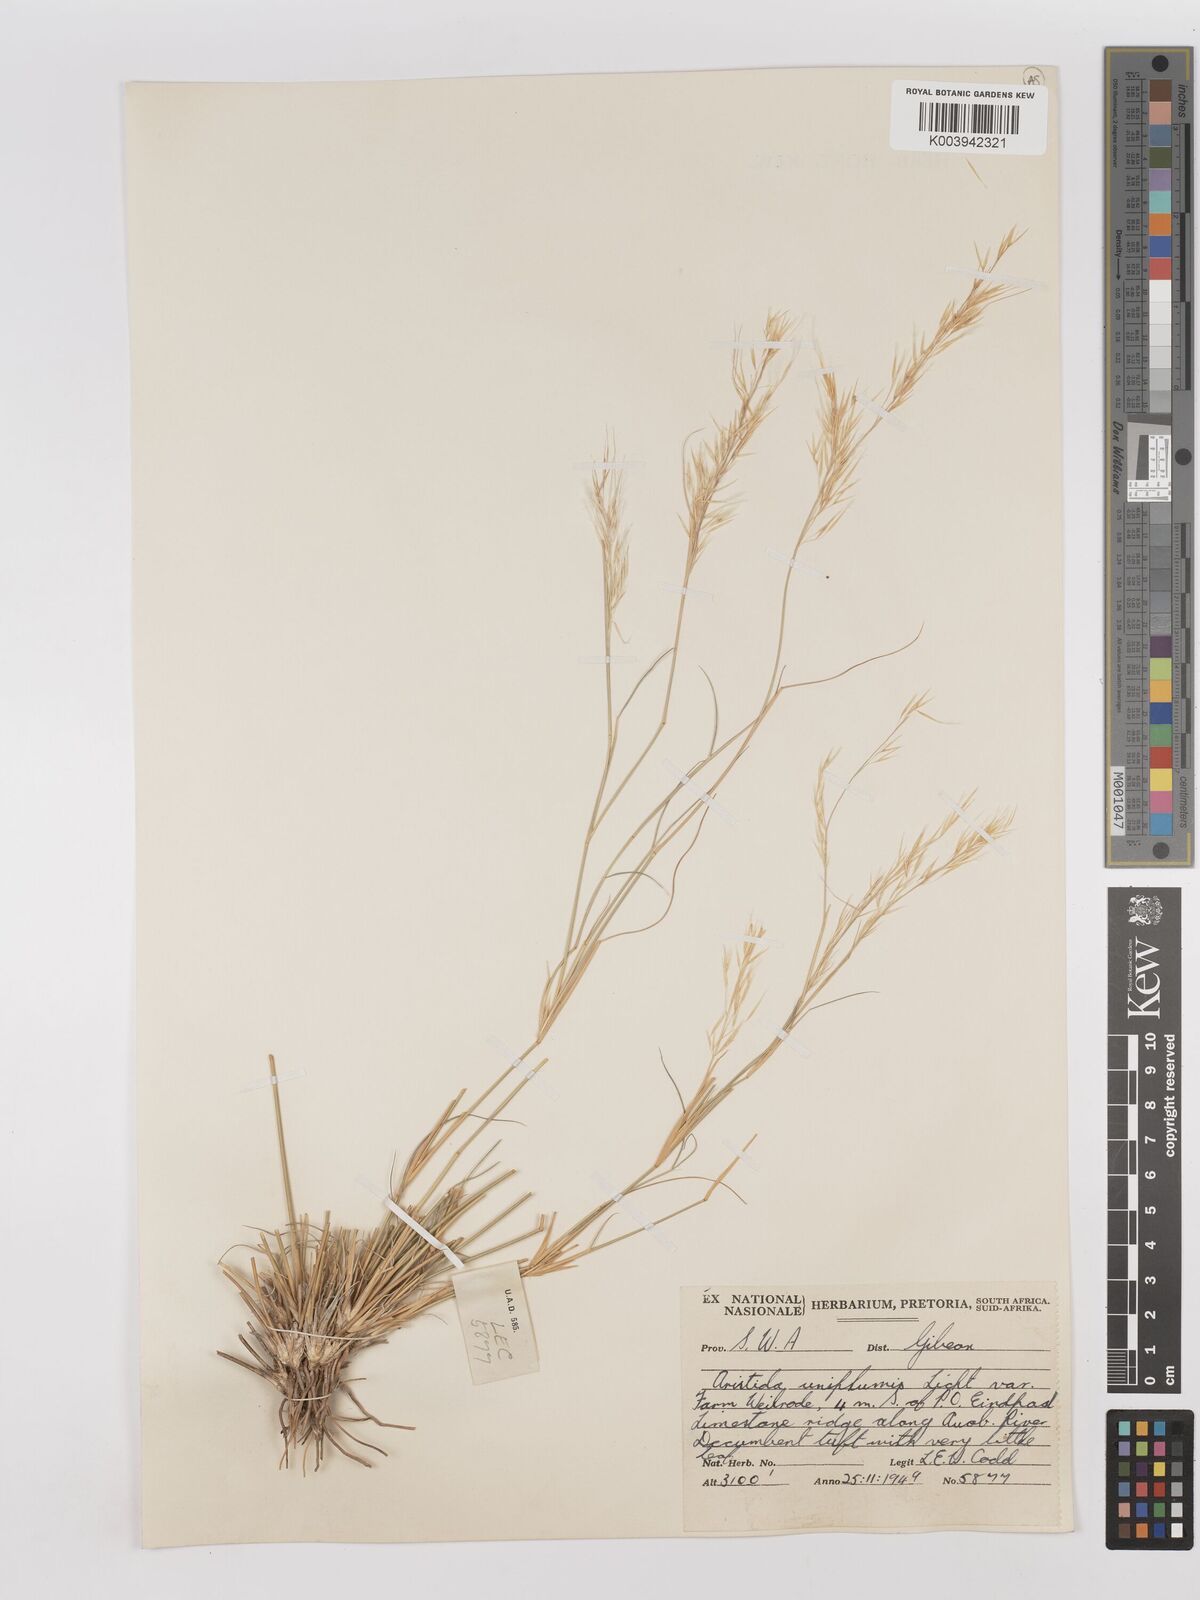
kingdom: Plantae
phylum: Tracheophyta
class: Liliopsida
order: Poales
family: Poaceae
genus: Stipagrostis
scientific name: Stipagrostis uniplumis
